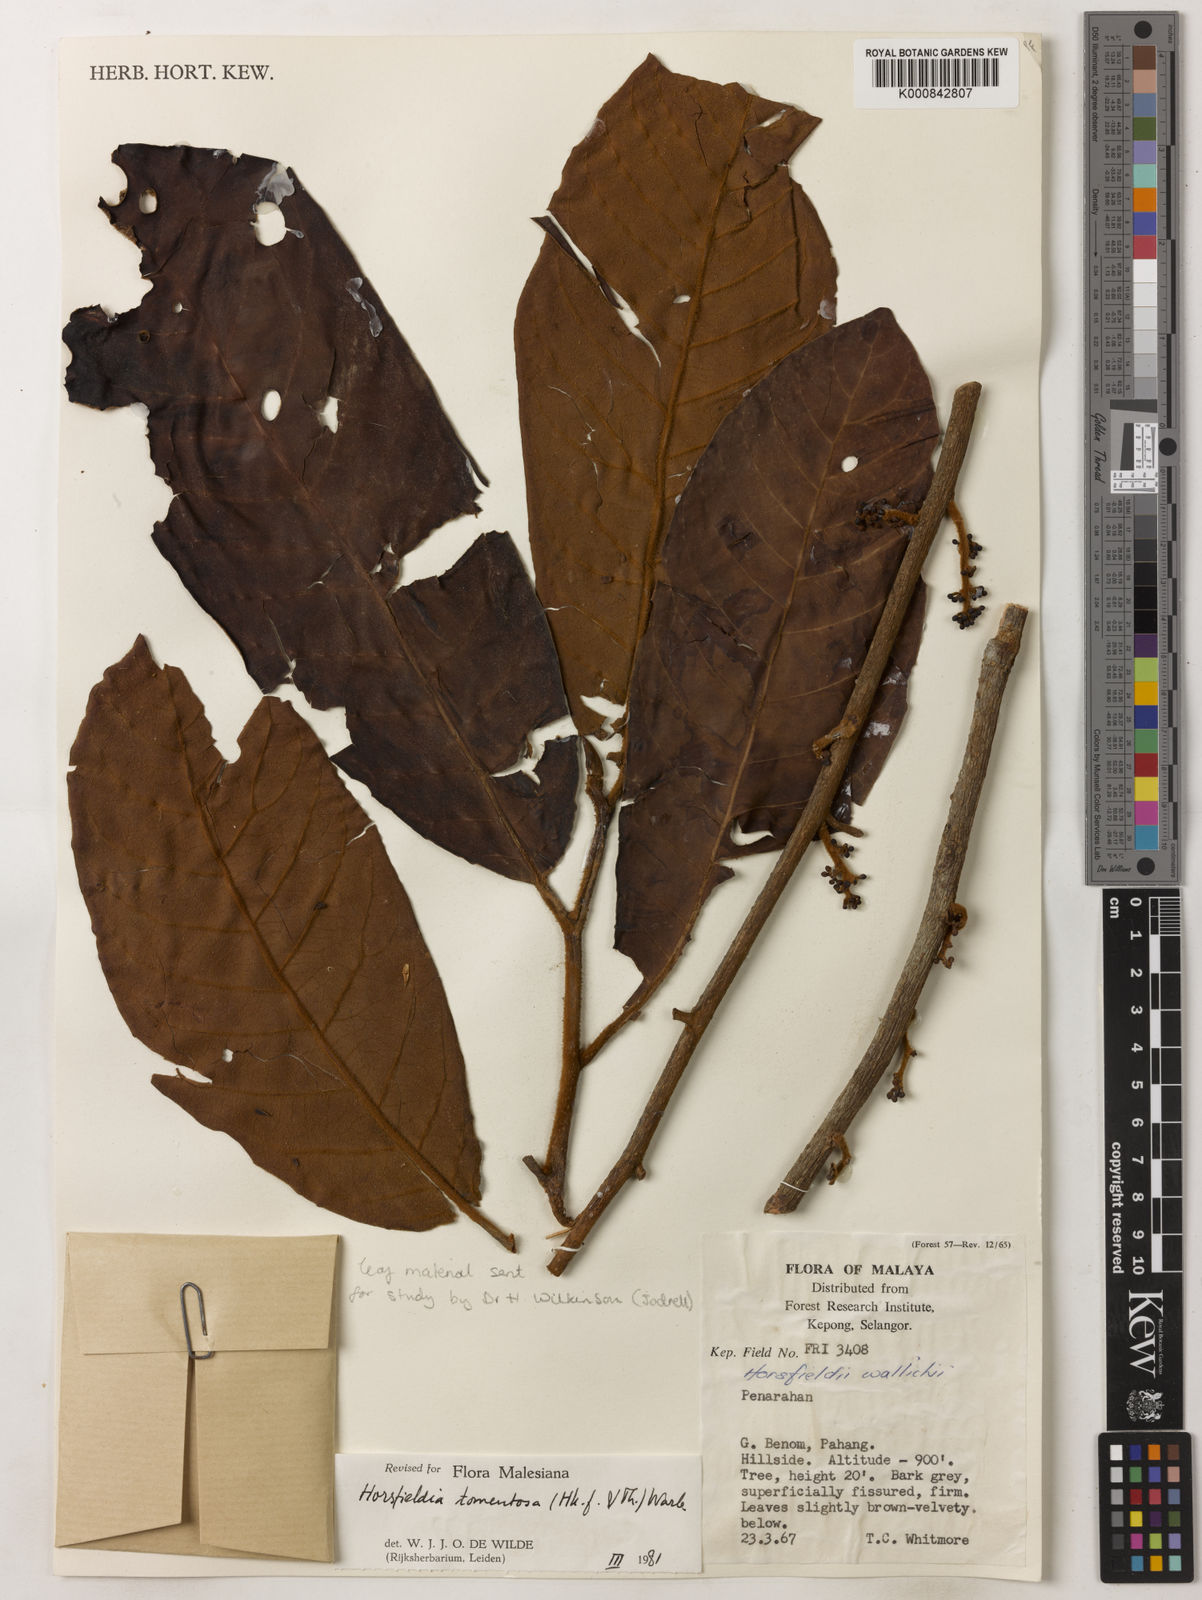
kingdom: Plantae
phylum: Tracheophyta
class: Magnoliopsida
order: Magnoliales
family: Myristicaceae
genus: Horsfieldia
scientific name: Horsfieldia tomentosa
